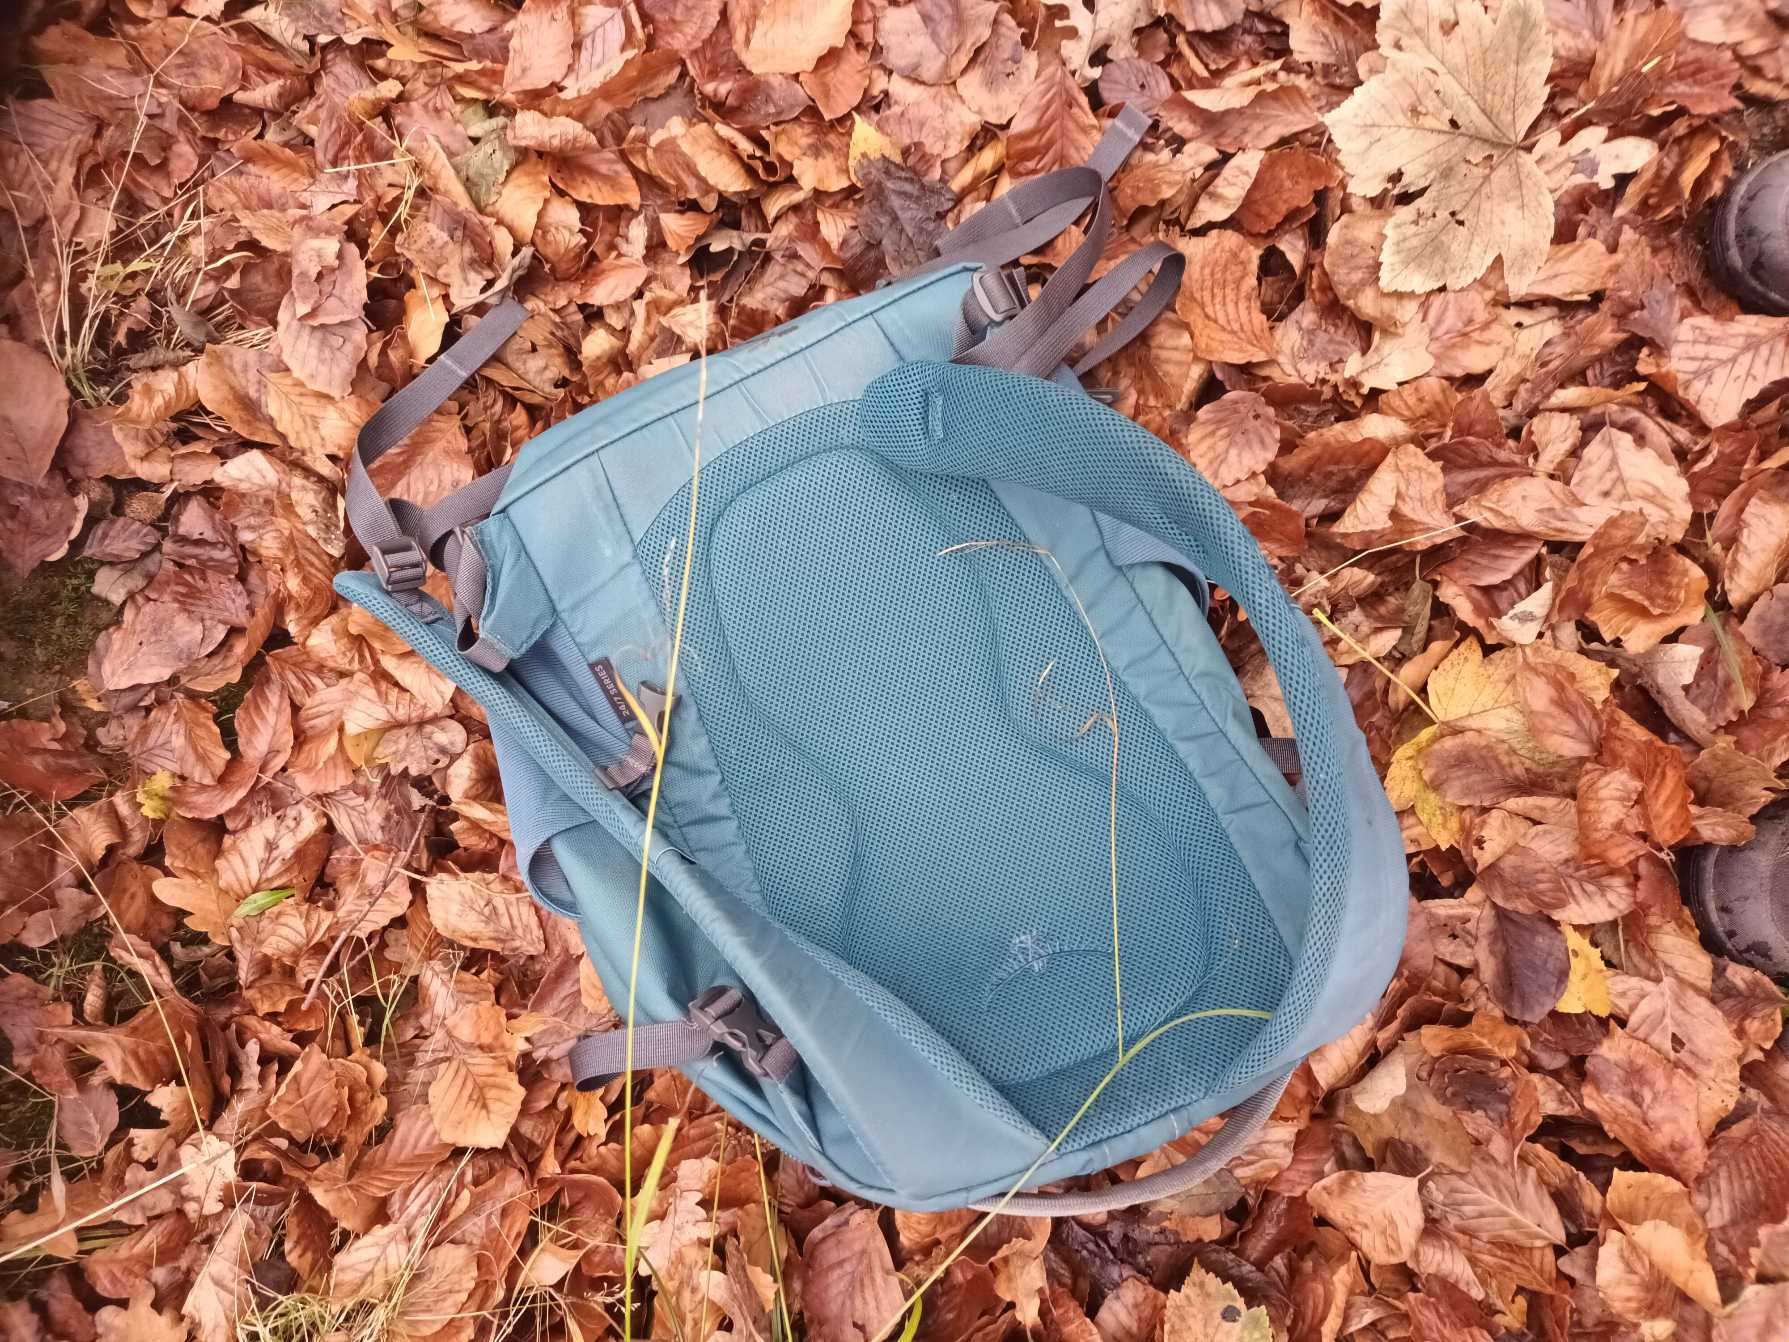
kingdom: Plantae
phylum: Tracheophyta
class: Liliopsida
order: Poales
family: Cyperaceae
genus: Carex
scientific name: Carex sylvatica
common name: Skov-star
